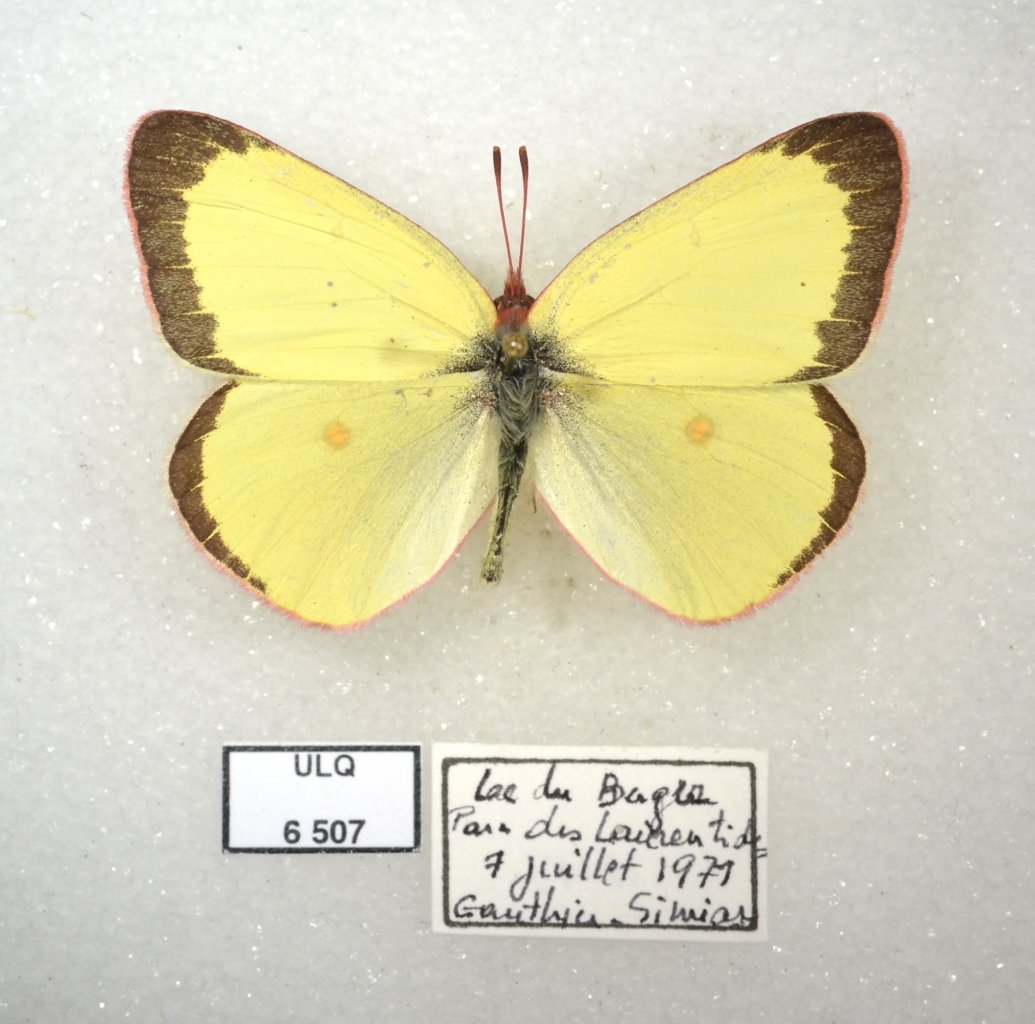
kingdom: Animalia
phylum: Arthropoda
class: Insecta
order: Lepidoptera
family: Pieridae
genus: Colias
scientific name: Colias interior
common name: Pink-edged Sulphur
